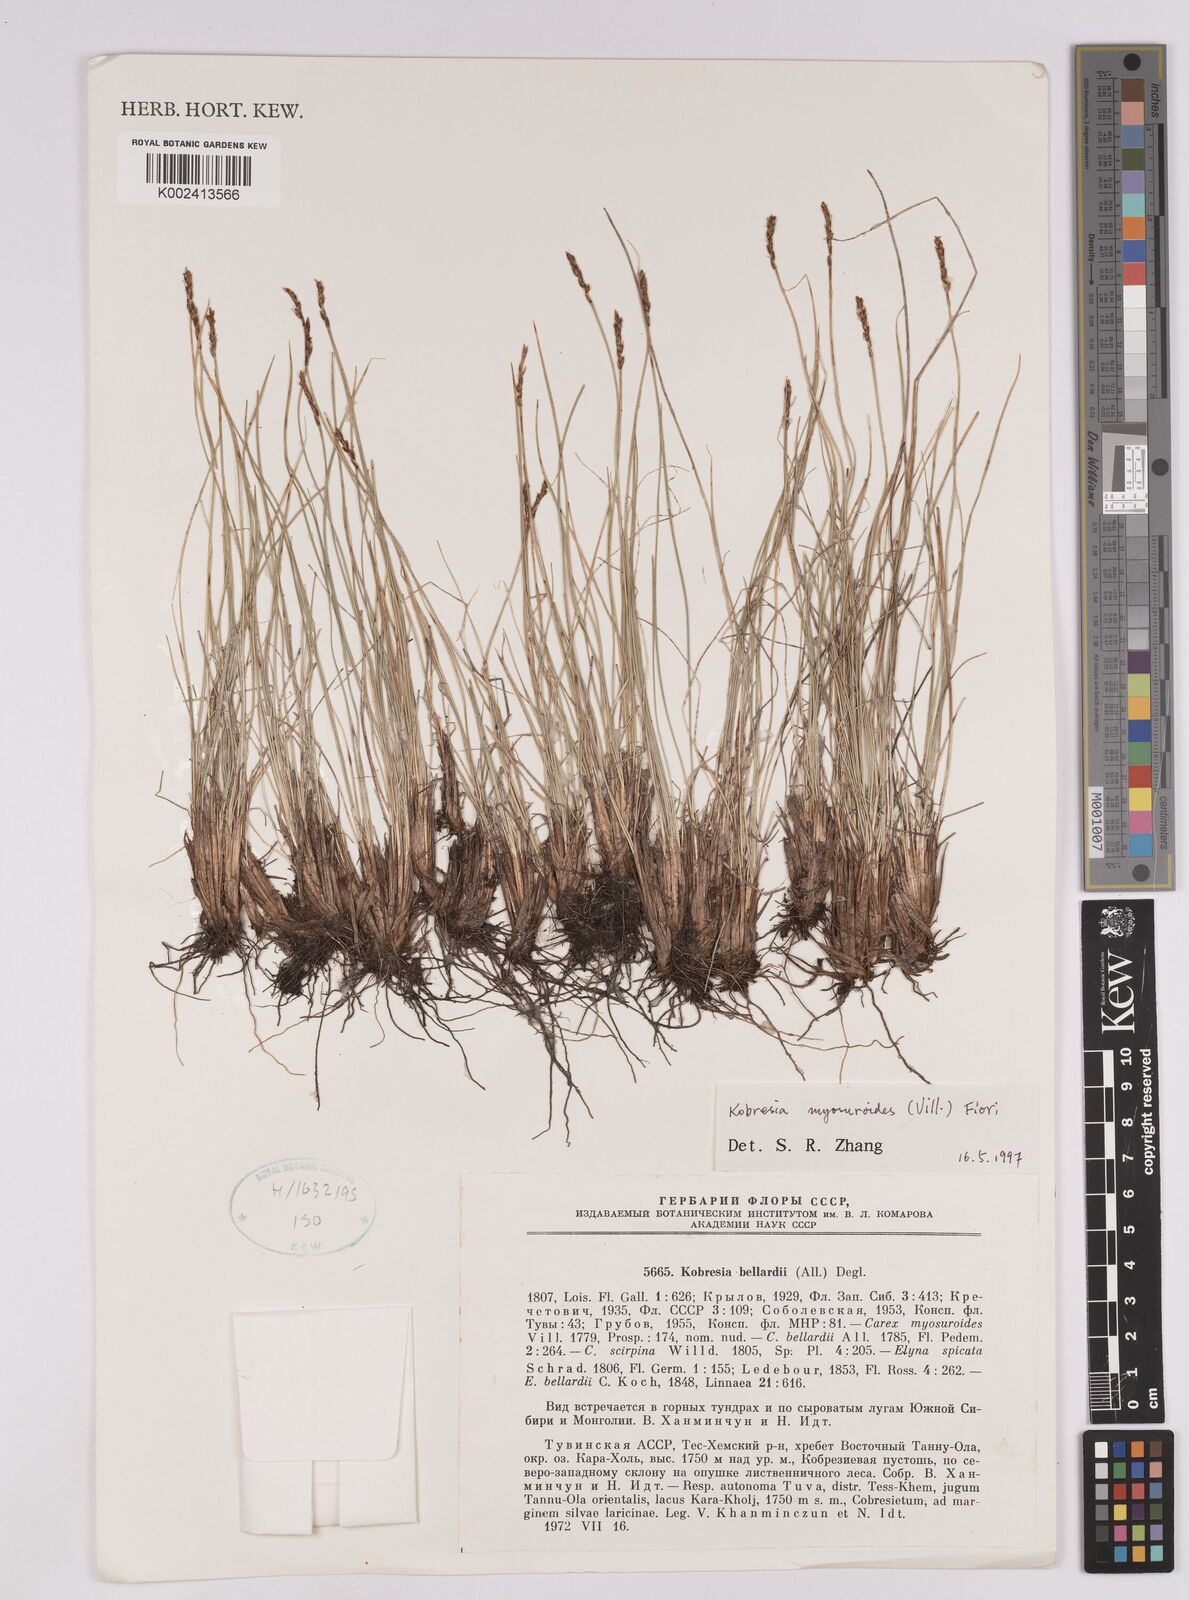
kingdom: Plantae
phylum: Tracheophyta
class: Liliopsida
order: Poales
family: Cyperaceae
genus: Carex
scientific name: Carex myosuroides
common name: Bellard's bog sedge
